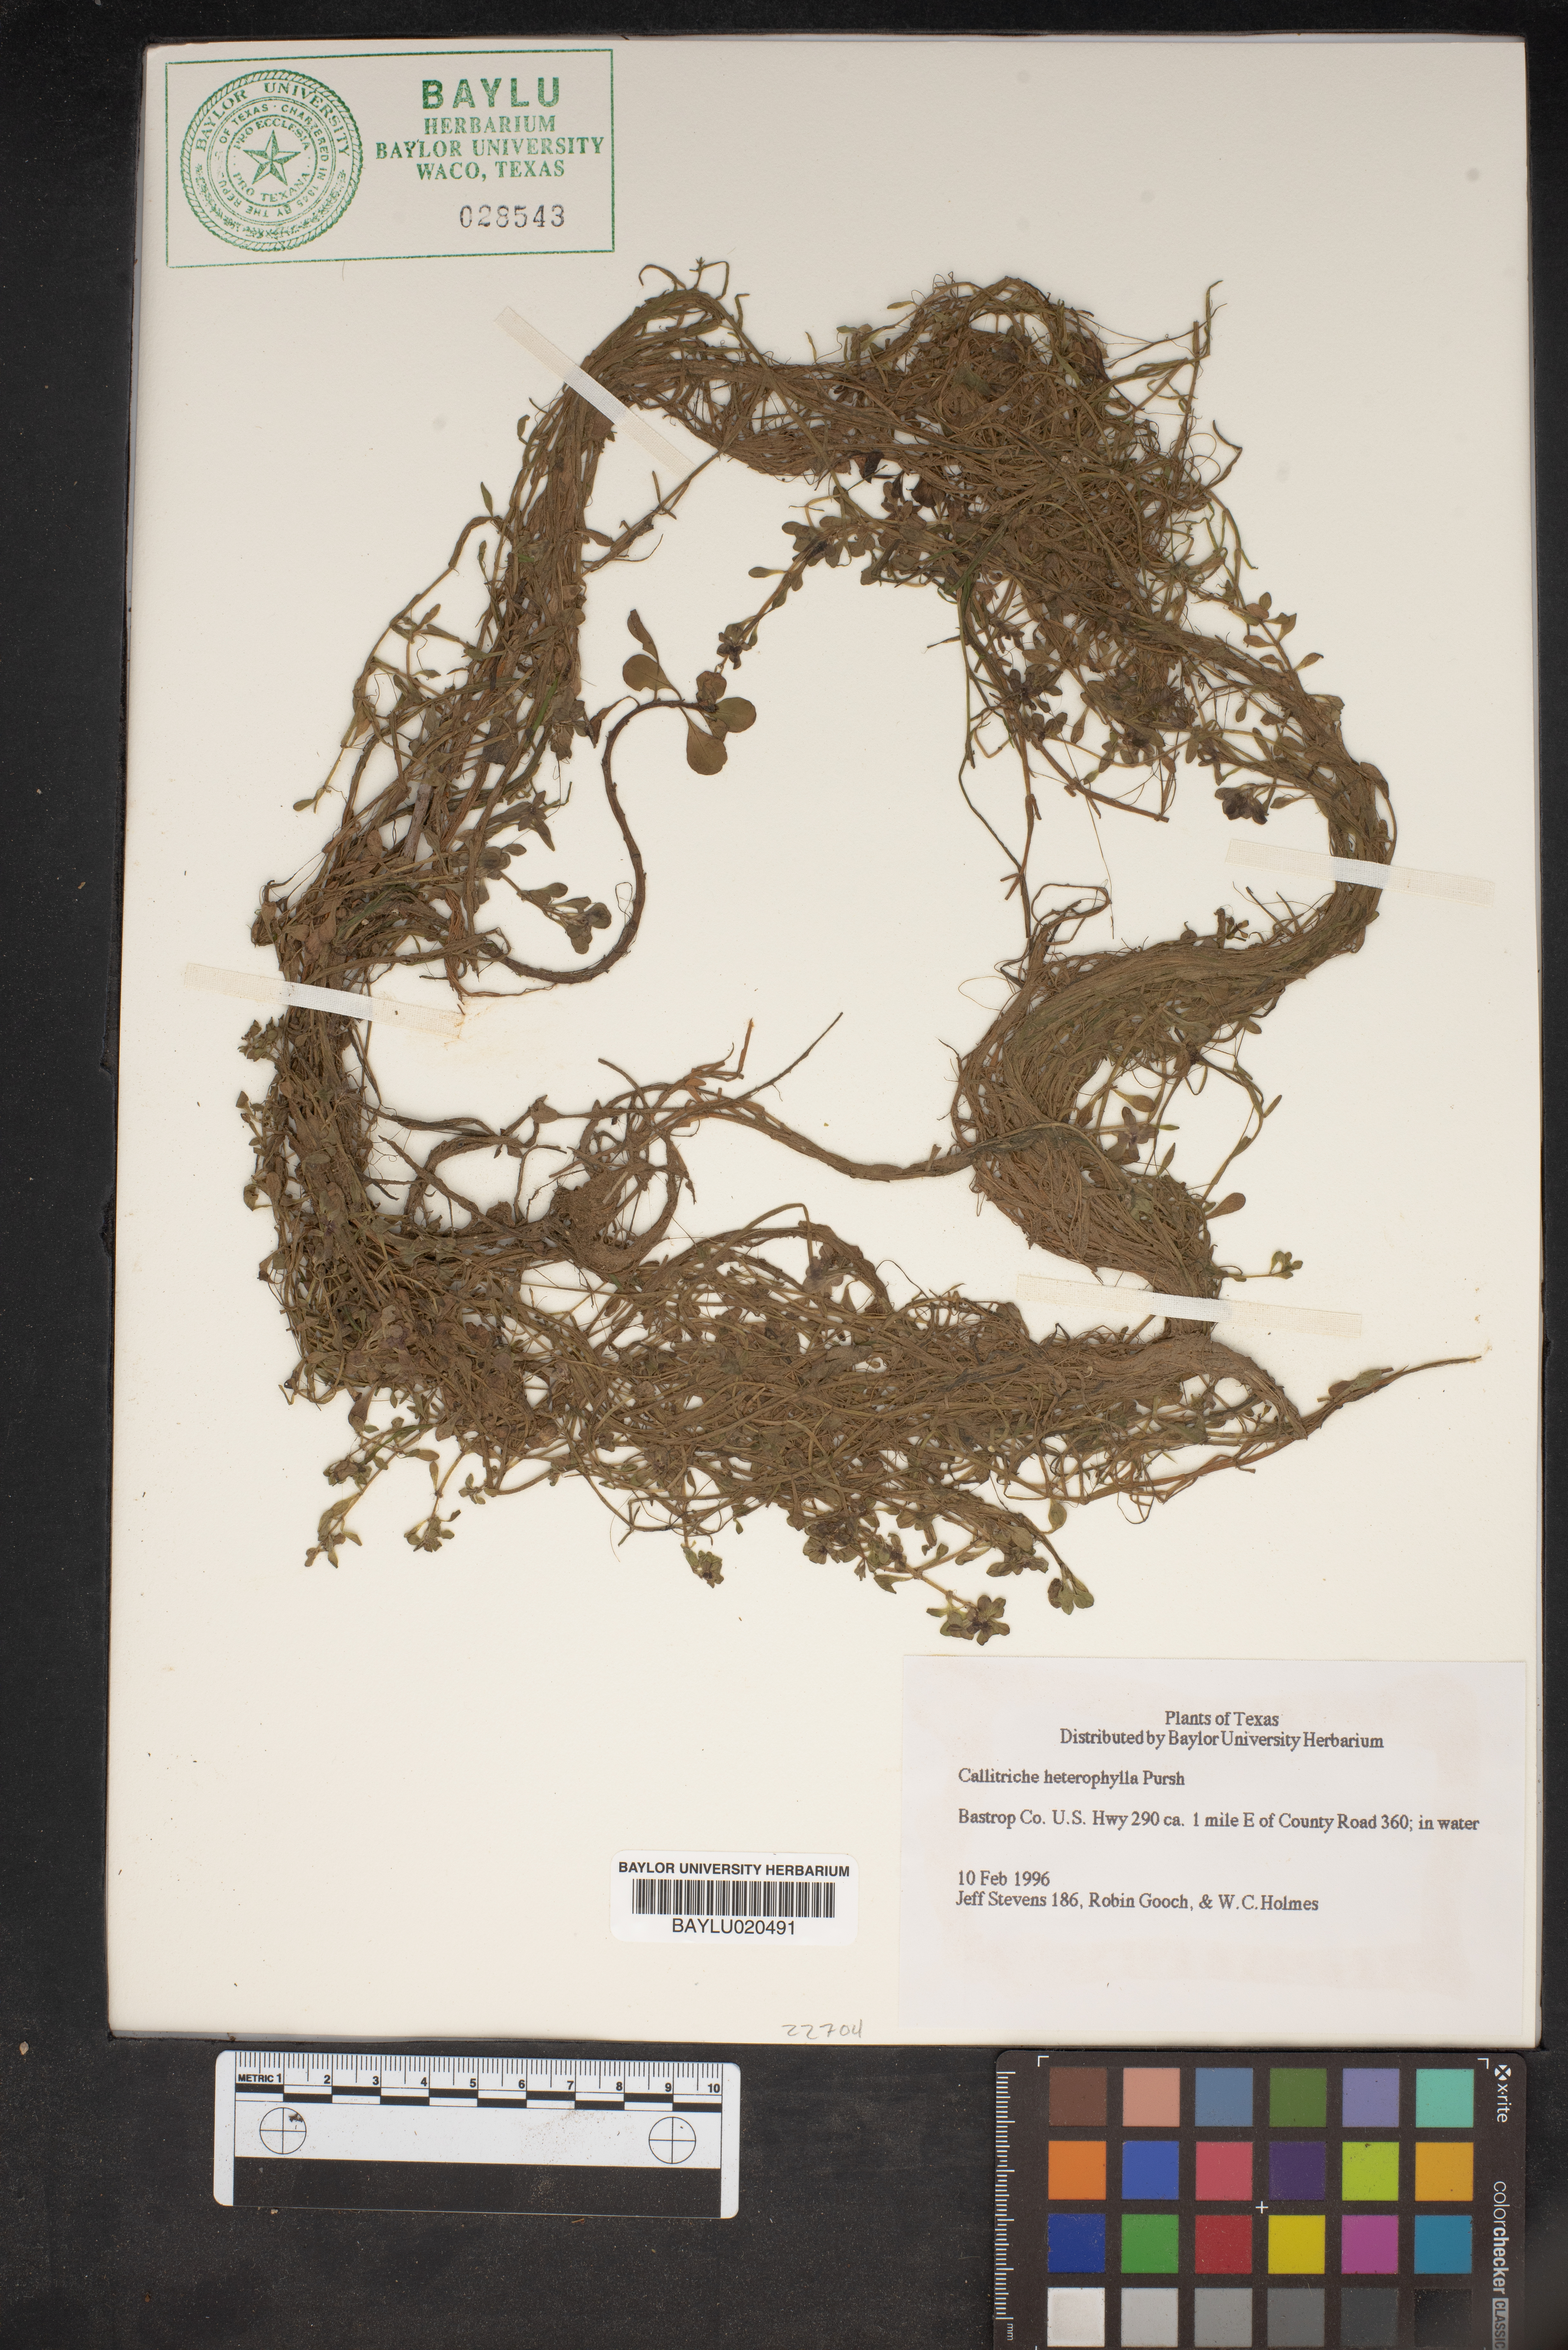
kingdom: Plantae
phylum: Tracheophyta
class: Magnoliopsida
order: Lamiales
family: Plantaginaceae
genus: Callitriche
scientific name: Callitriche heterophylla
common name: Two-headed water-starwort
